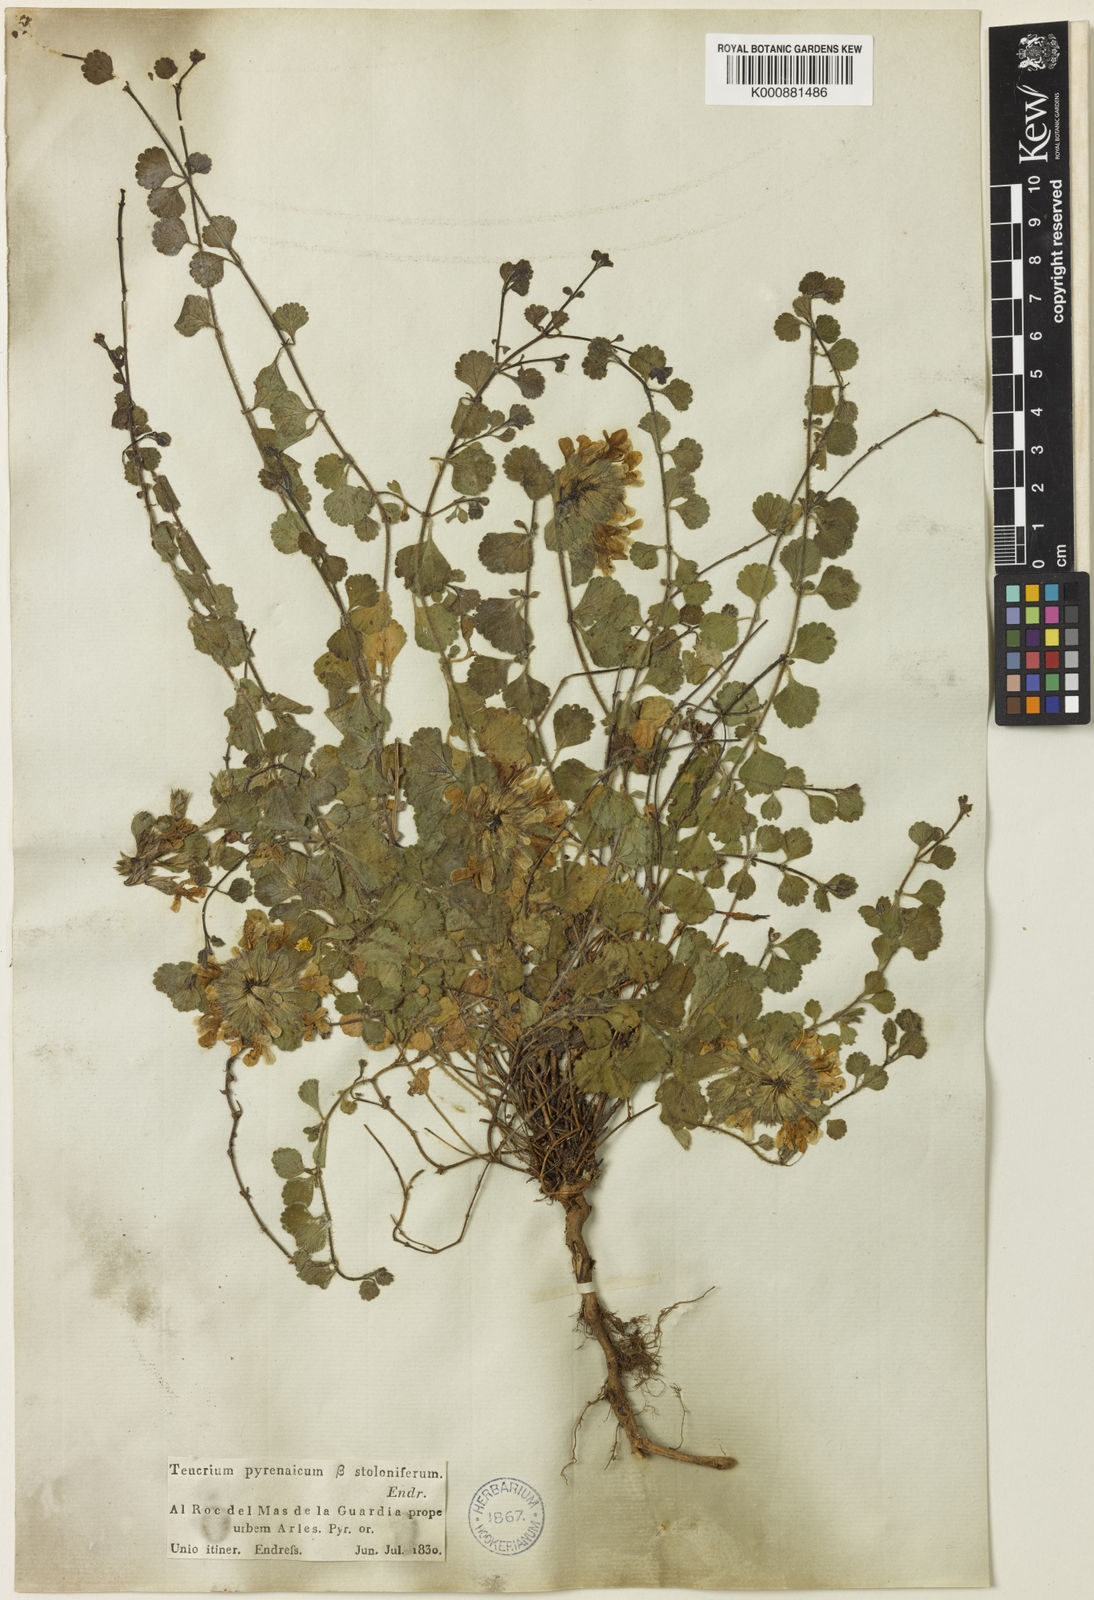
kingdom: Plantae
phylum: Tracheophyta
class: Magnoliopsida
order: Lamiales
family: Lamiaceae
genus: Teucrium
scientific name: Teucrium pyrenaicum
